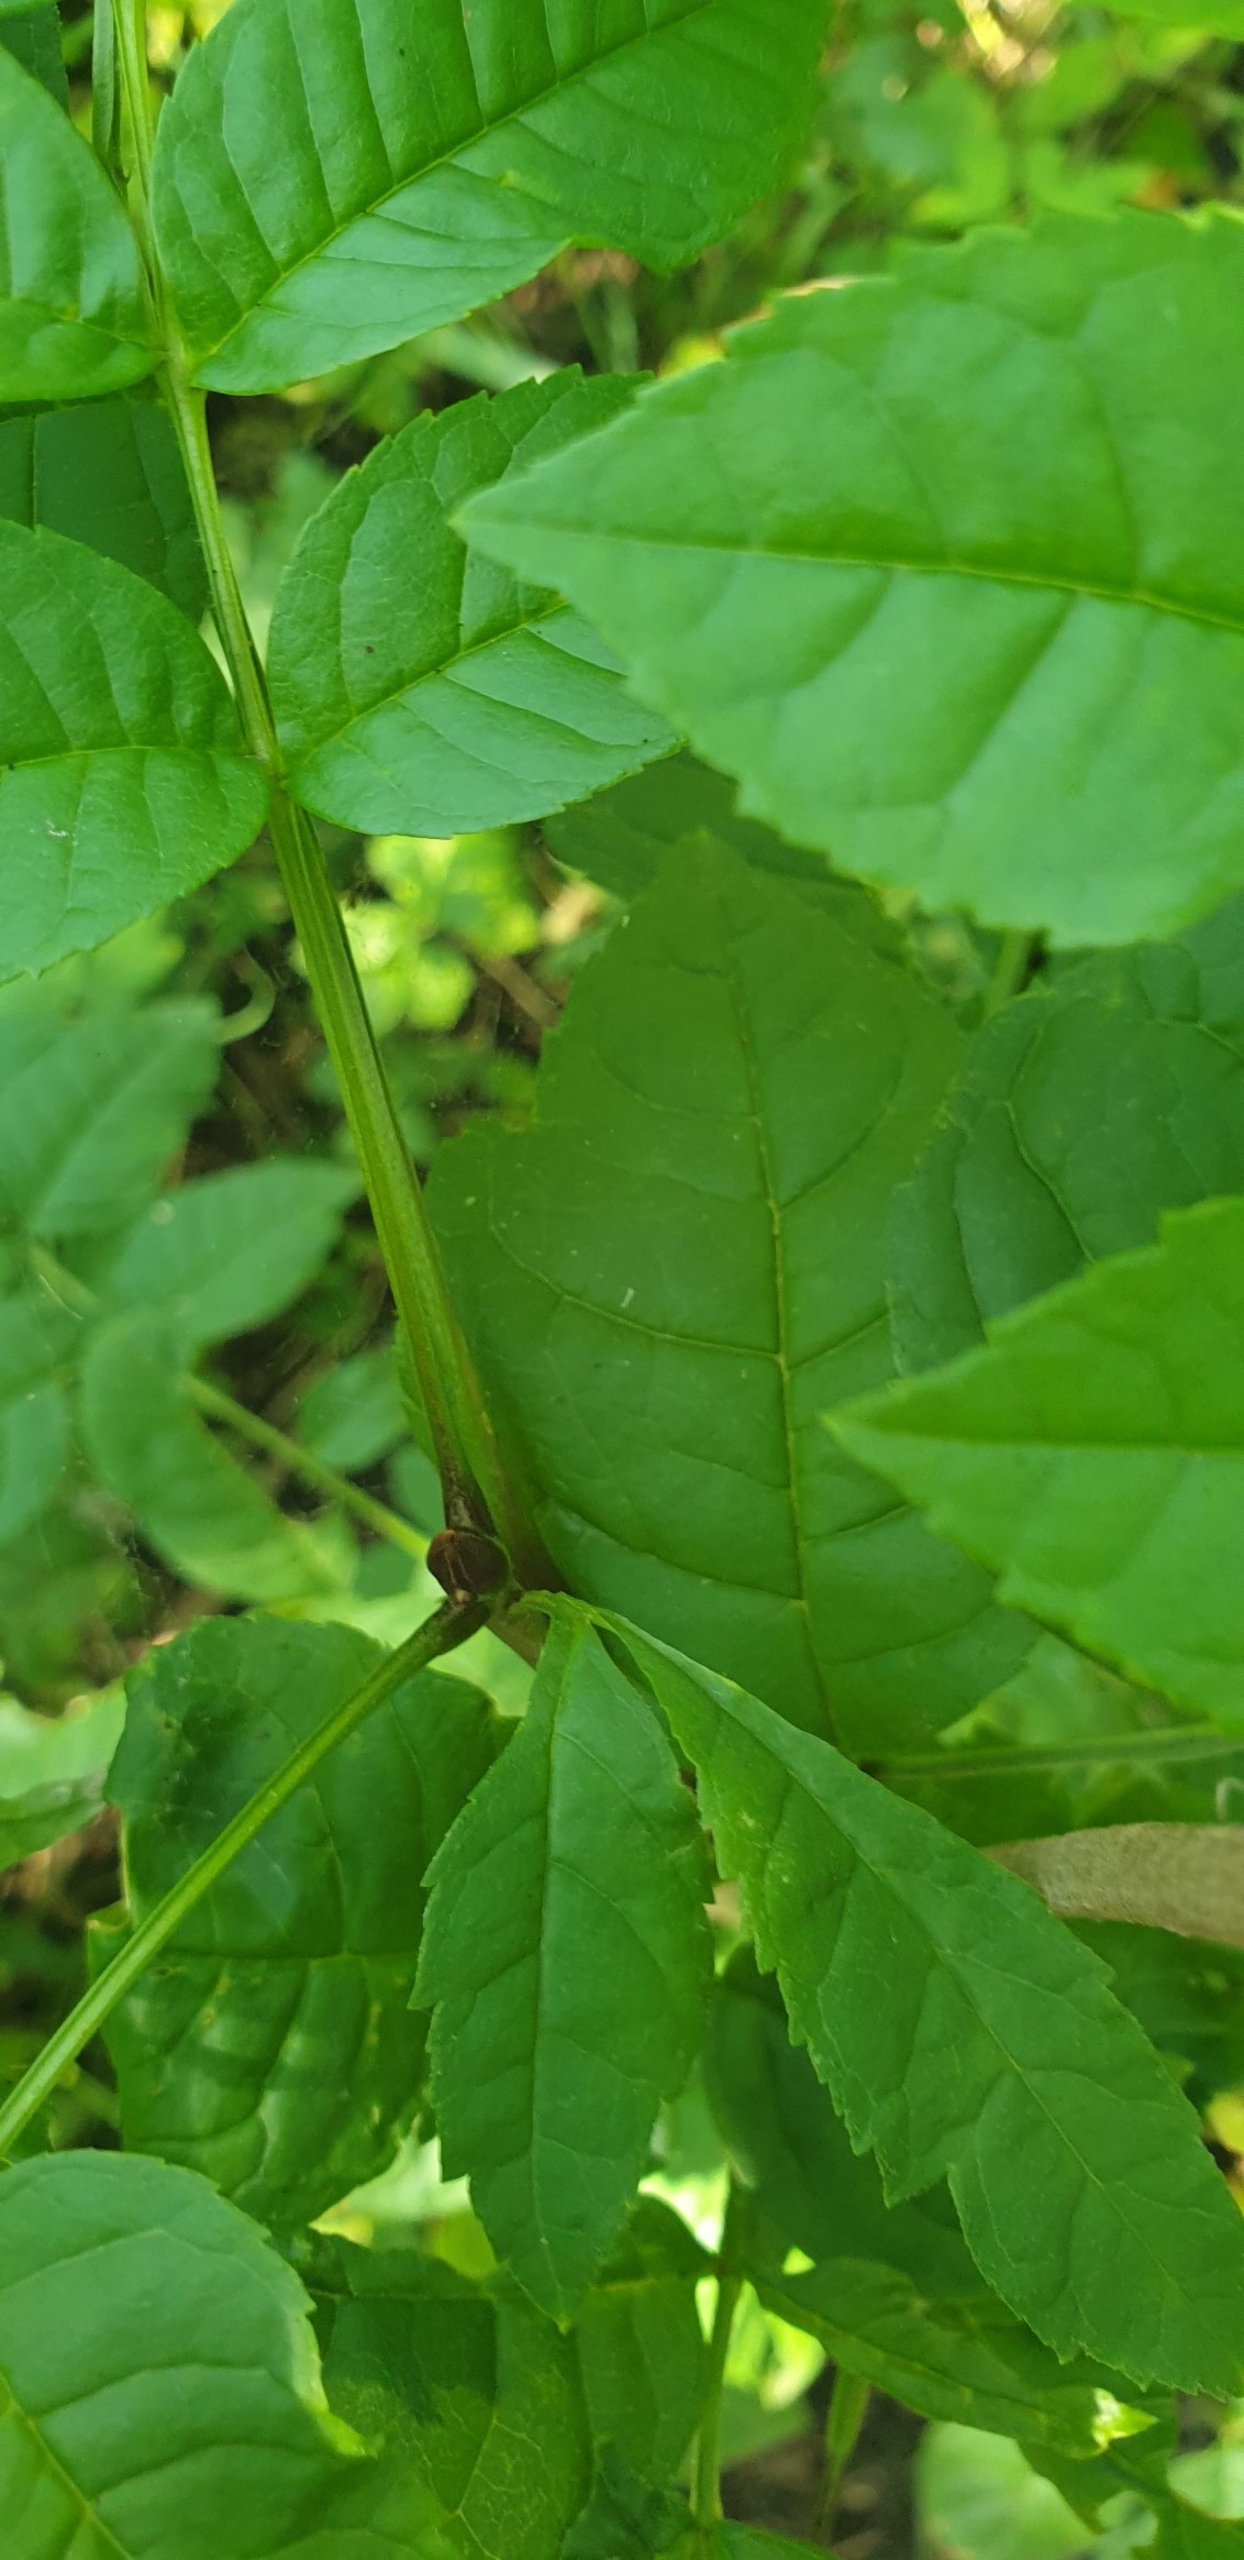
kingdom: Plantae
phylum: Tracheophyta
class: Magnoliopsida
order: Lamiales
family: Oleaceae
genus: Fraxinus
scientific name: Fraxinus excelsior
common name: Ask
